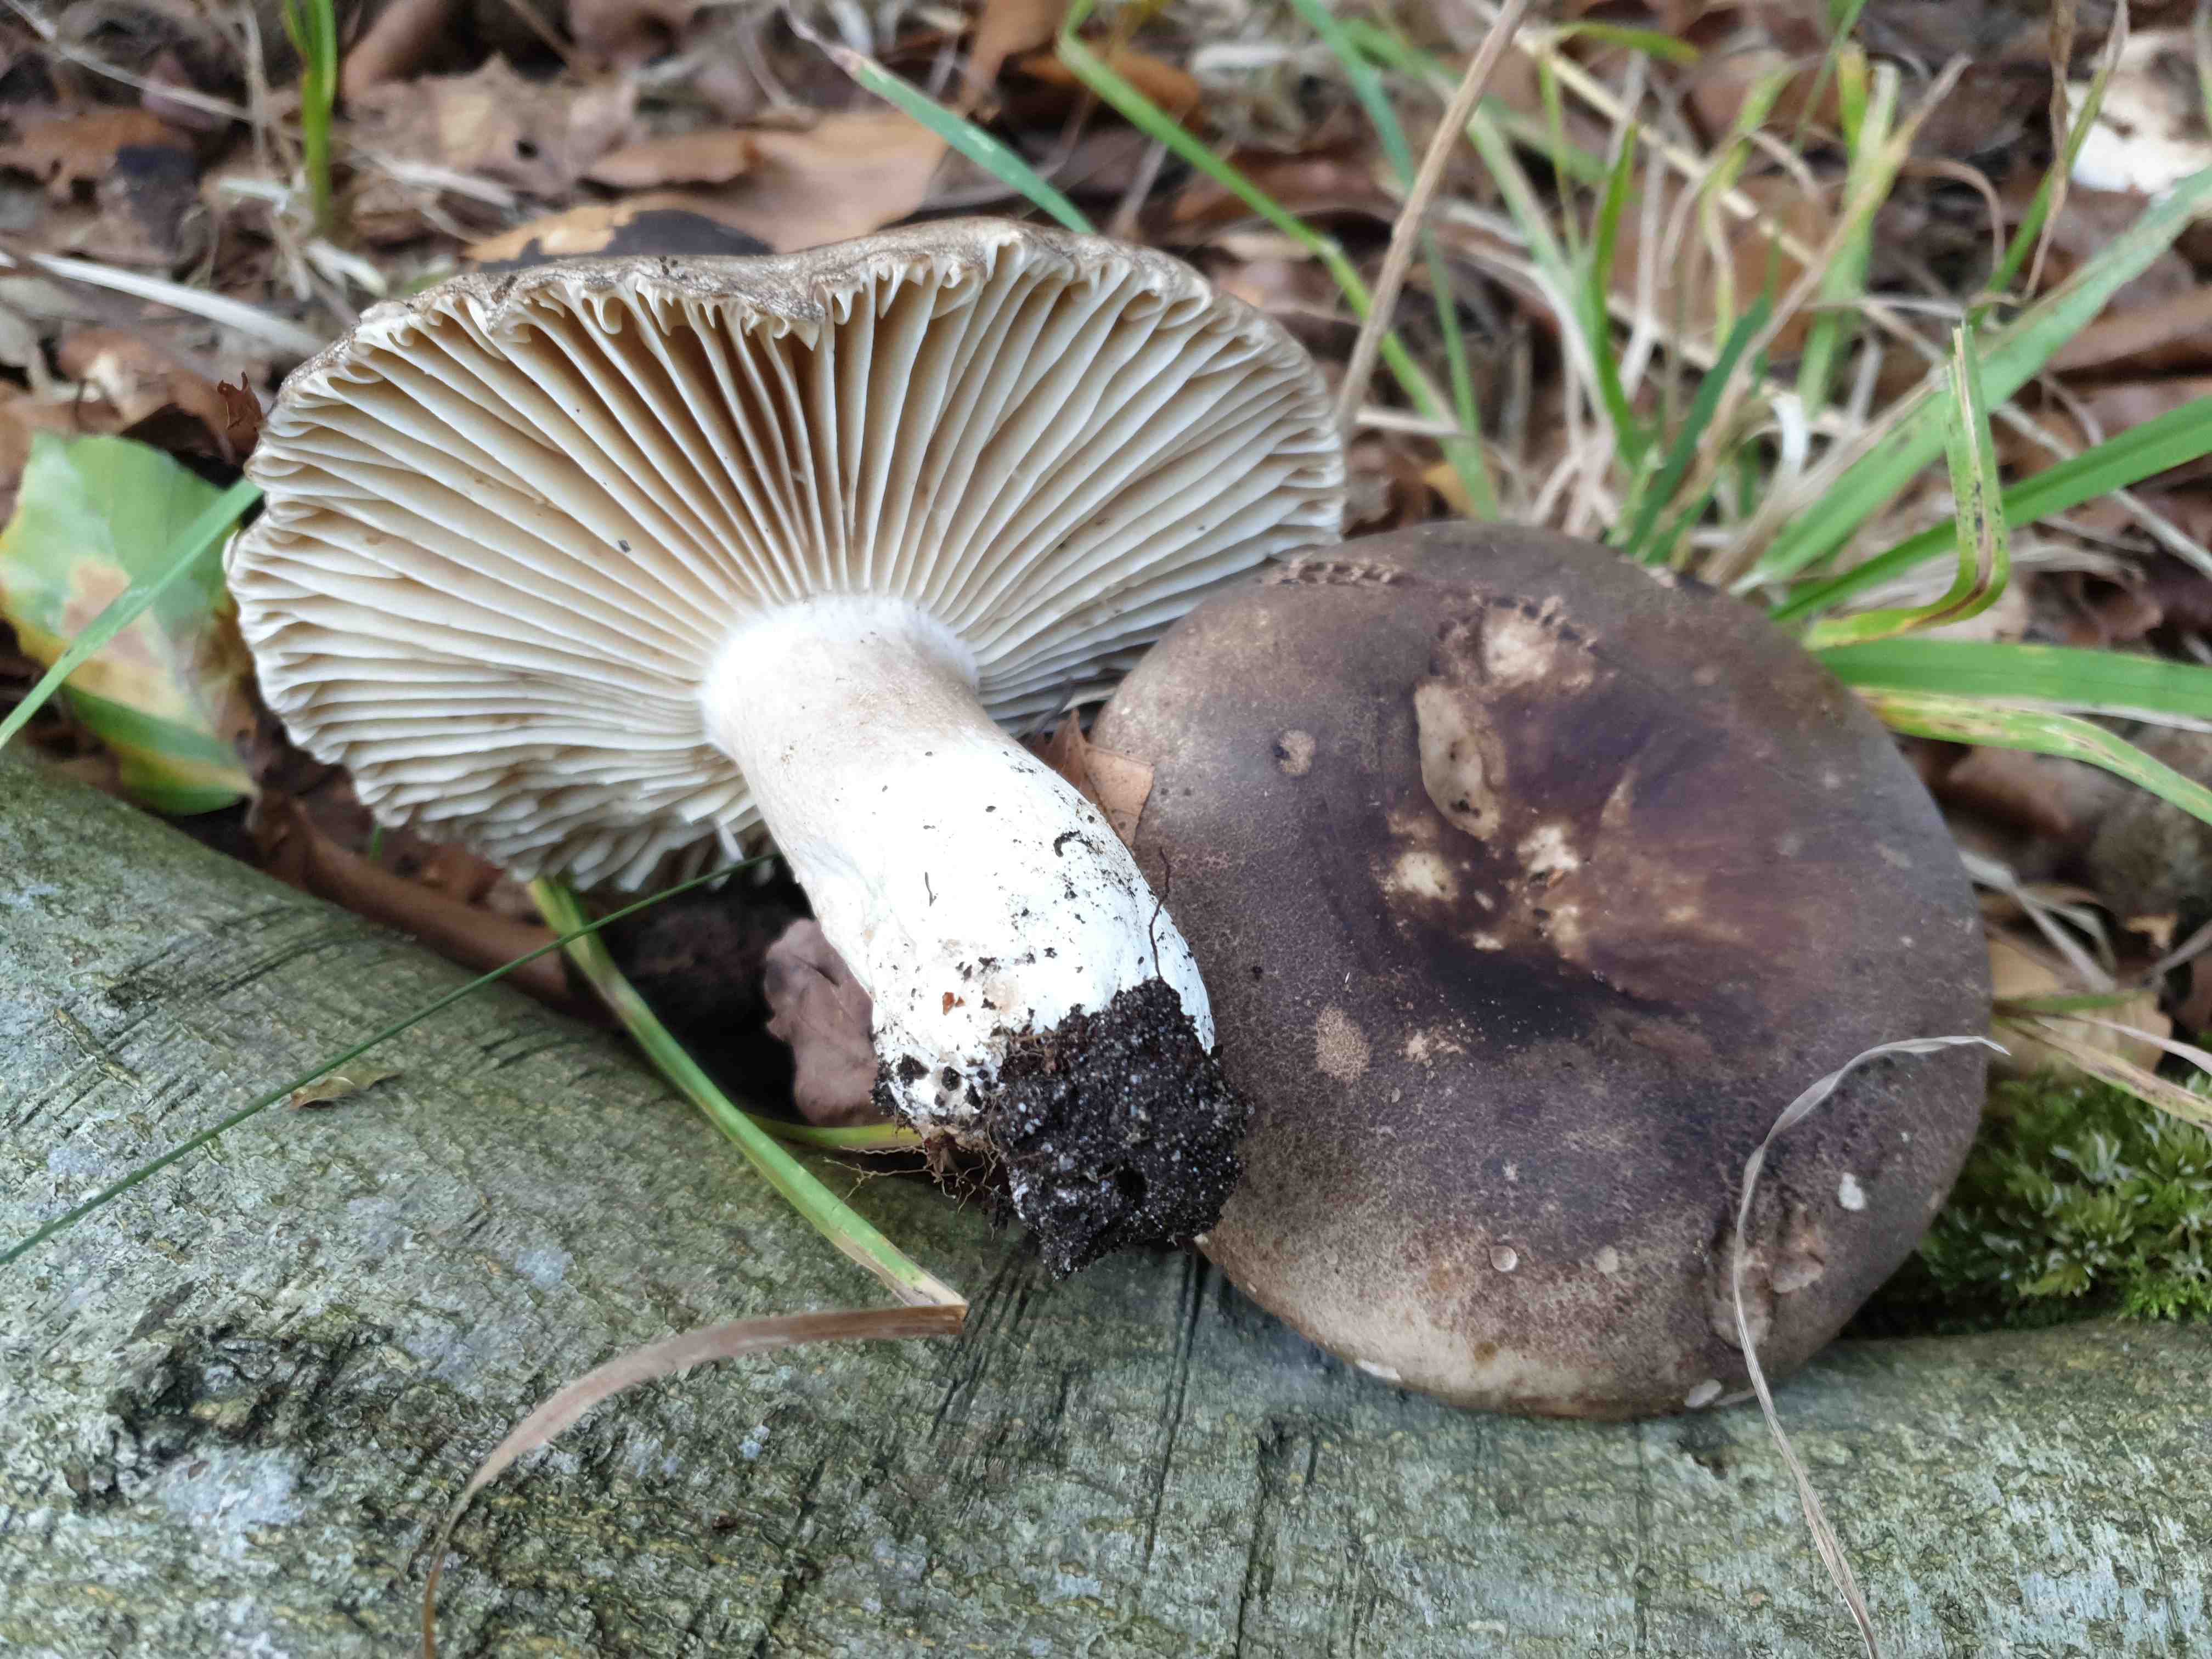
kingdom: Fungi
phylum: Basidiomycota
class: Agaricomycetes
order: Russulales
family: Russulaceae
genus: Russula
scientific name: Russula adusta
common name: sværtende skørhat
